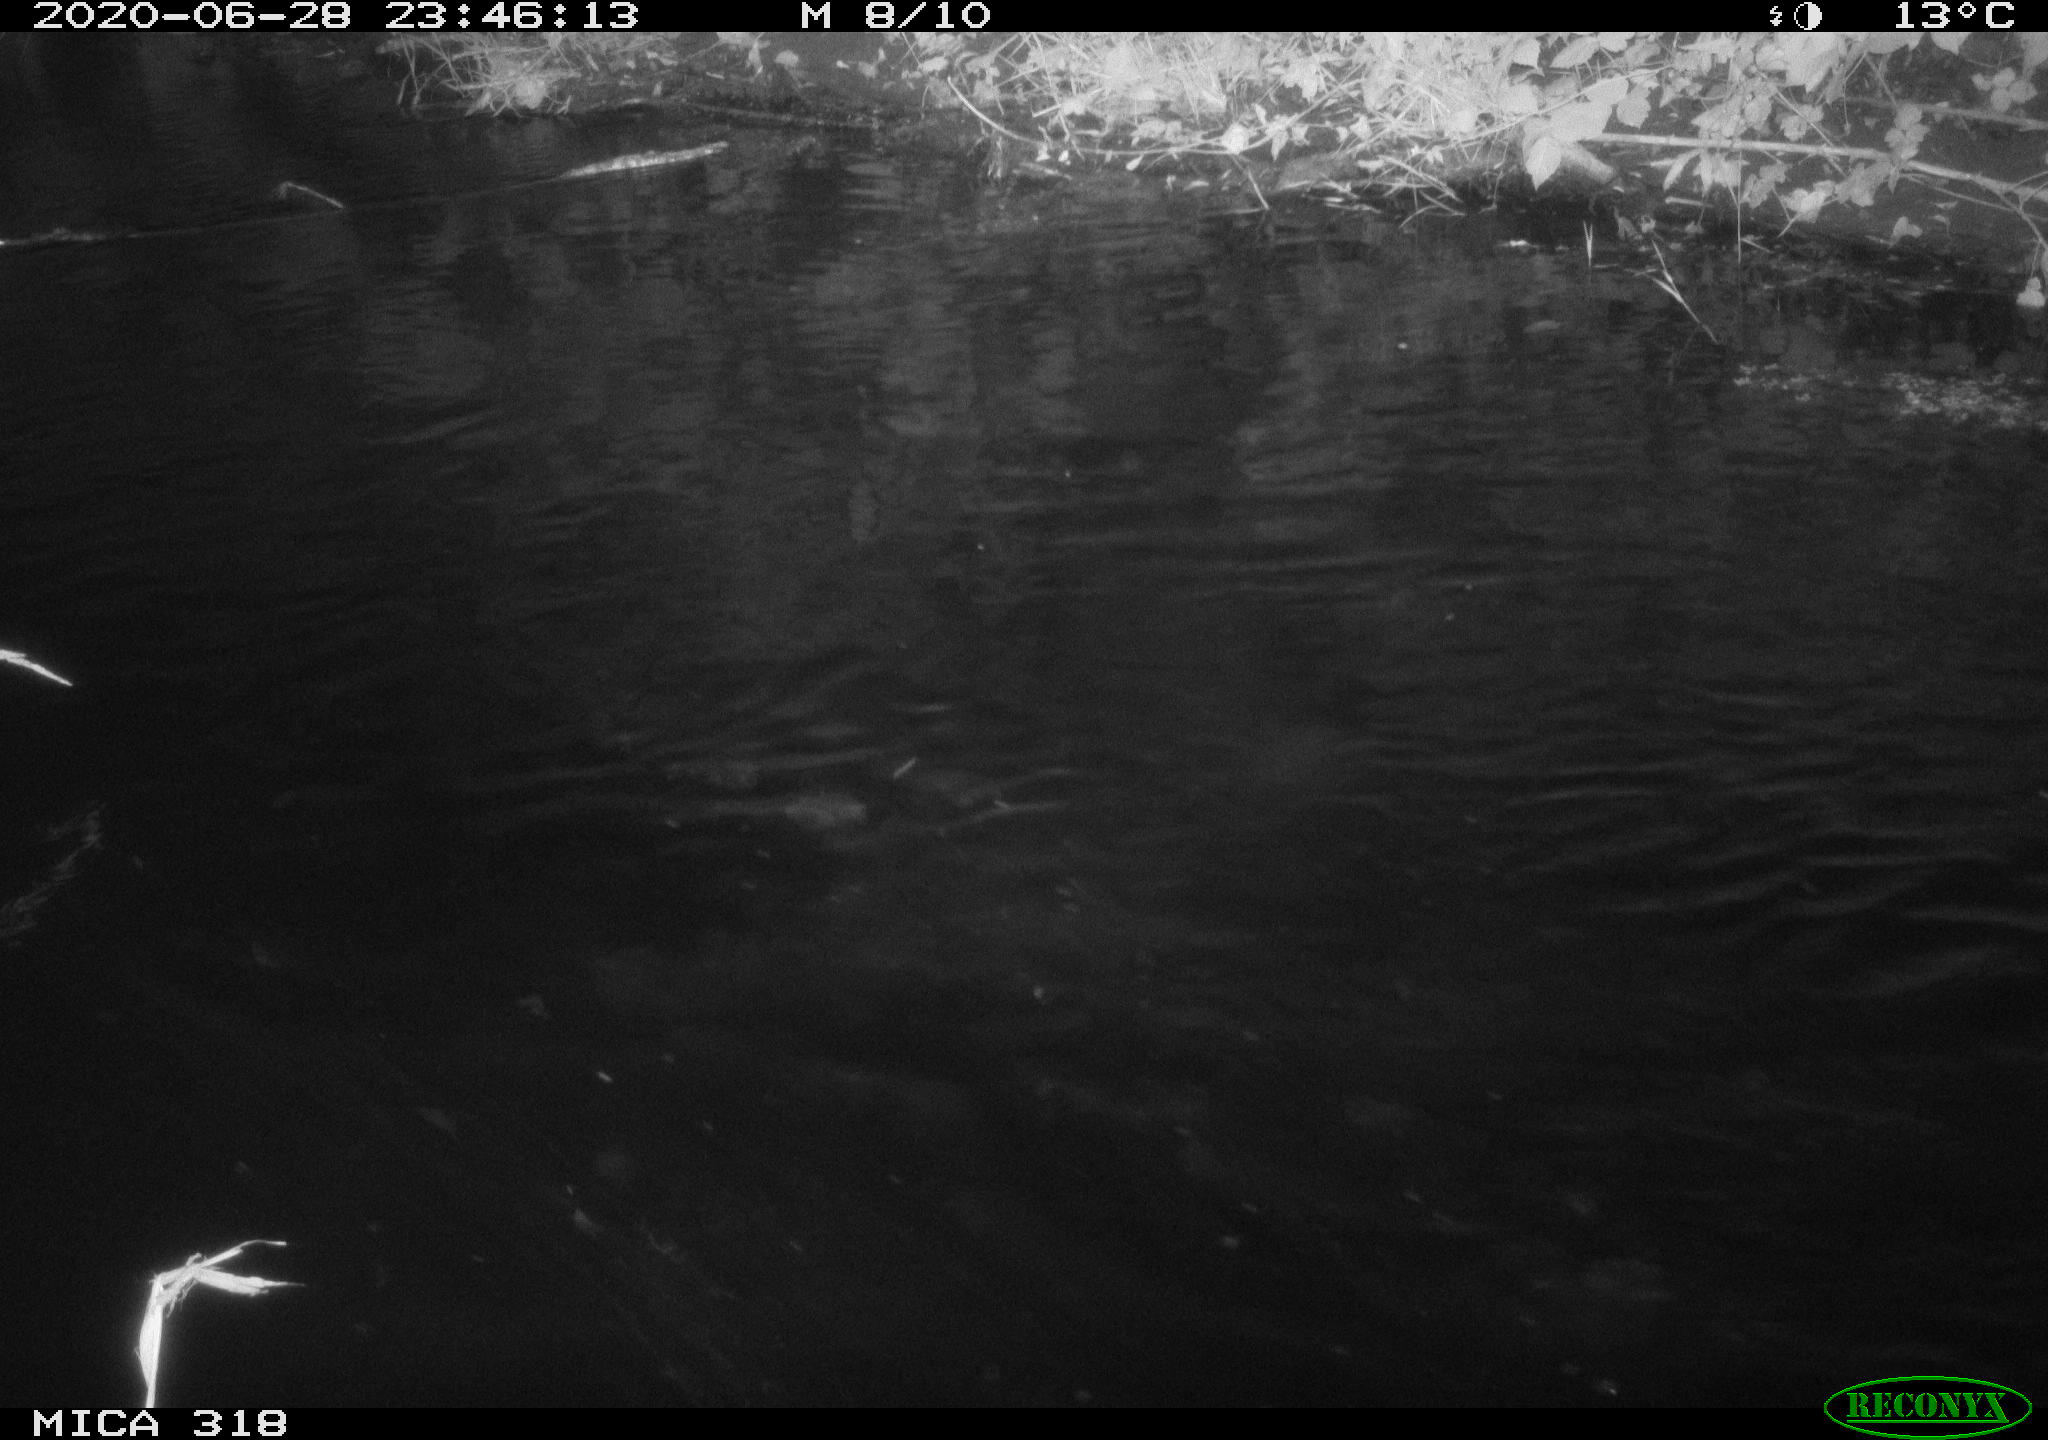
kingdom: Animalia
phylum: Chordata
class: Aves
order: Anseriformes
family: Anatidae
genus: Anas
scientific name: Anas platyrhynchos
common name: Mallard
